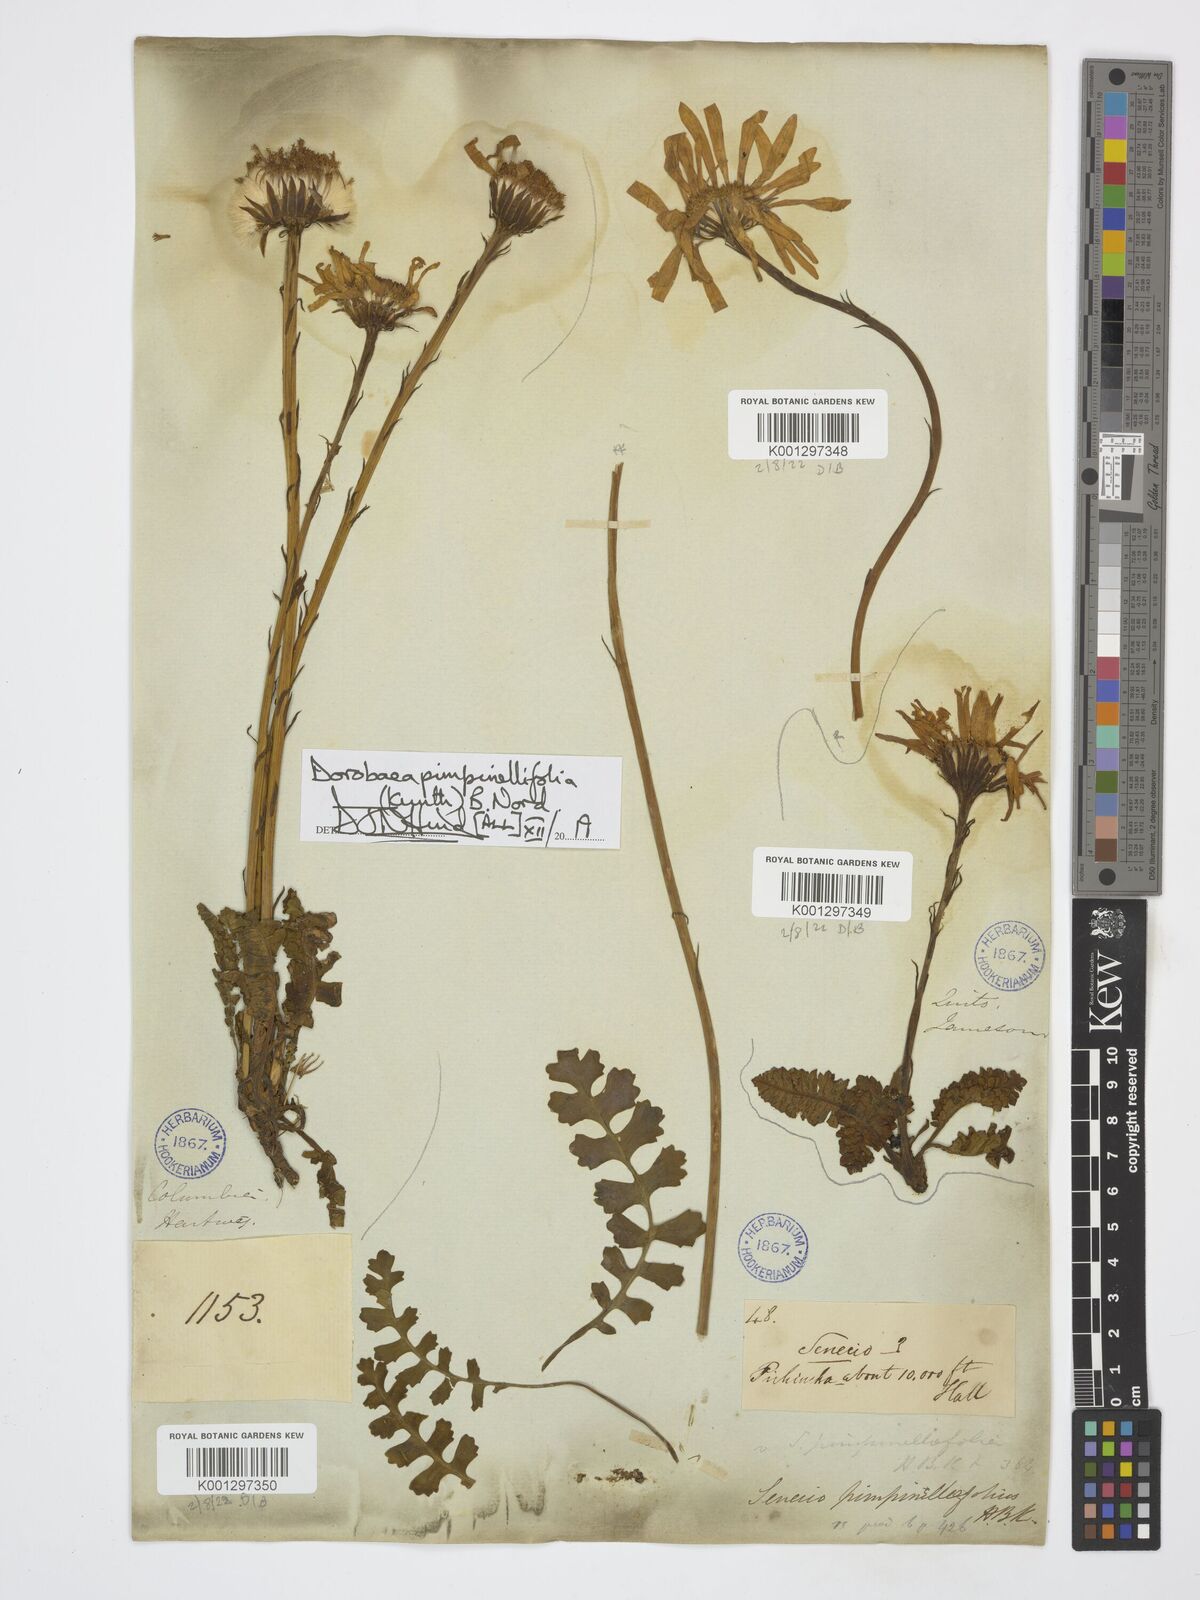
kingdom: Plantae
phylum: Tracheophyta
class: Magnoliopsida
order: Asterales
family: Asteraceae
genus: Dorobaea
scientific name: Dorobaea callacallensis
